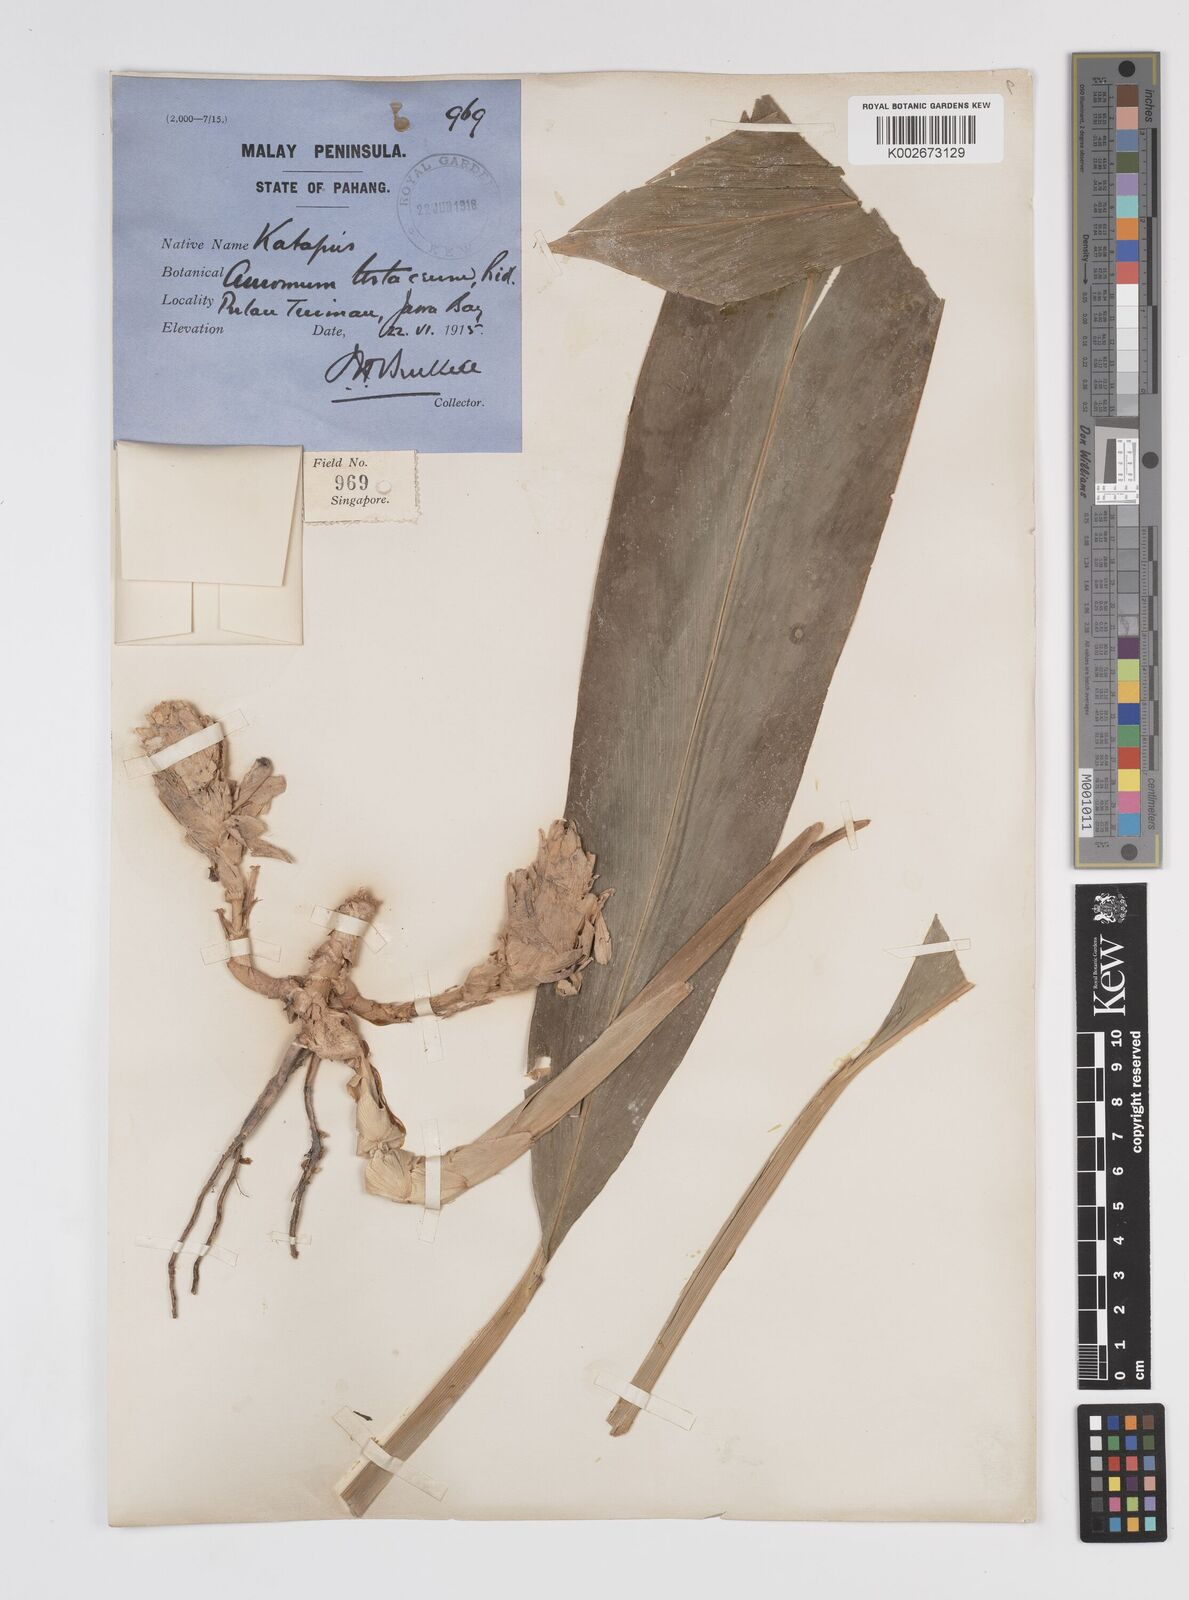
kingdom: Plantae
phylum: Tracheophyta
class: Liliopsida
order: Zingiberales
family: Zingiberaceae
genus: Wurfbainia
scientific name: Wurfbainia testacea
